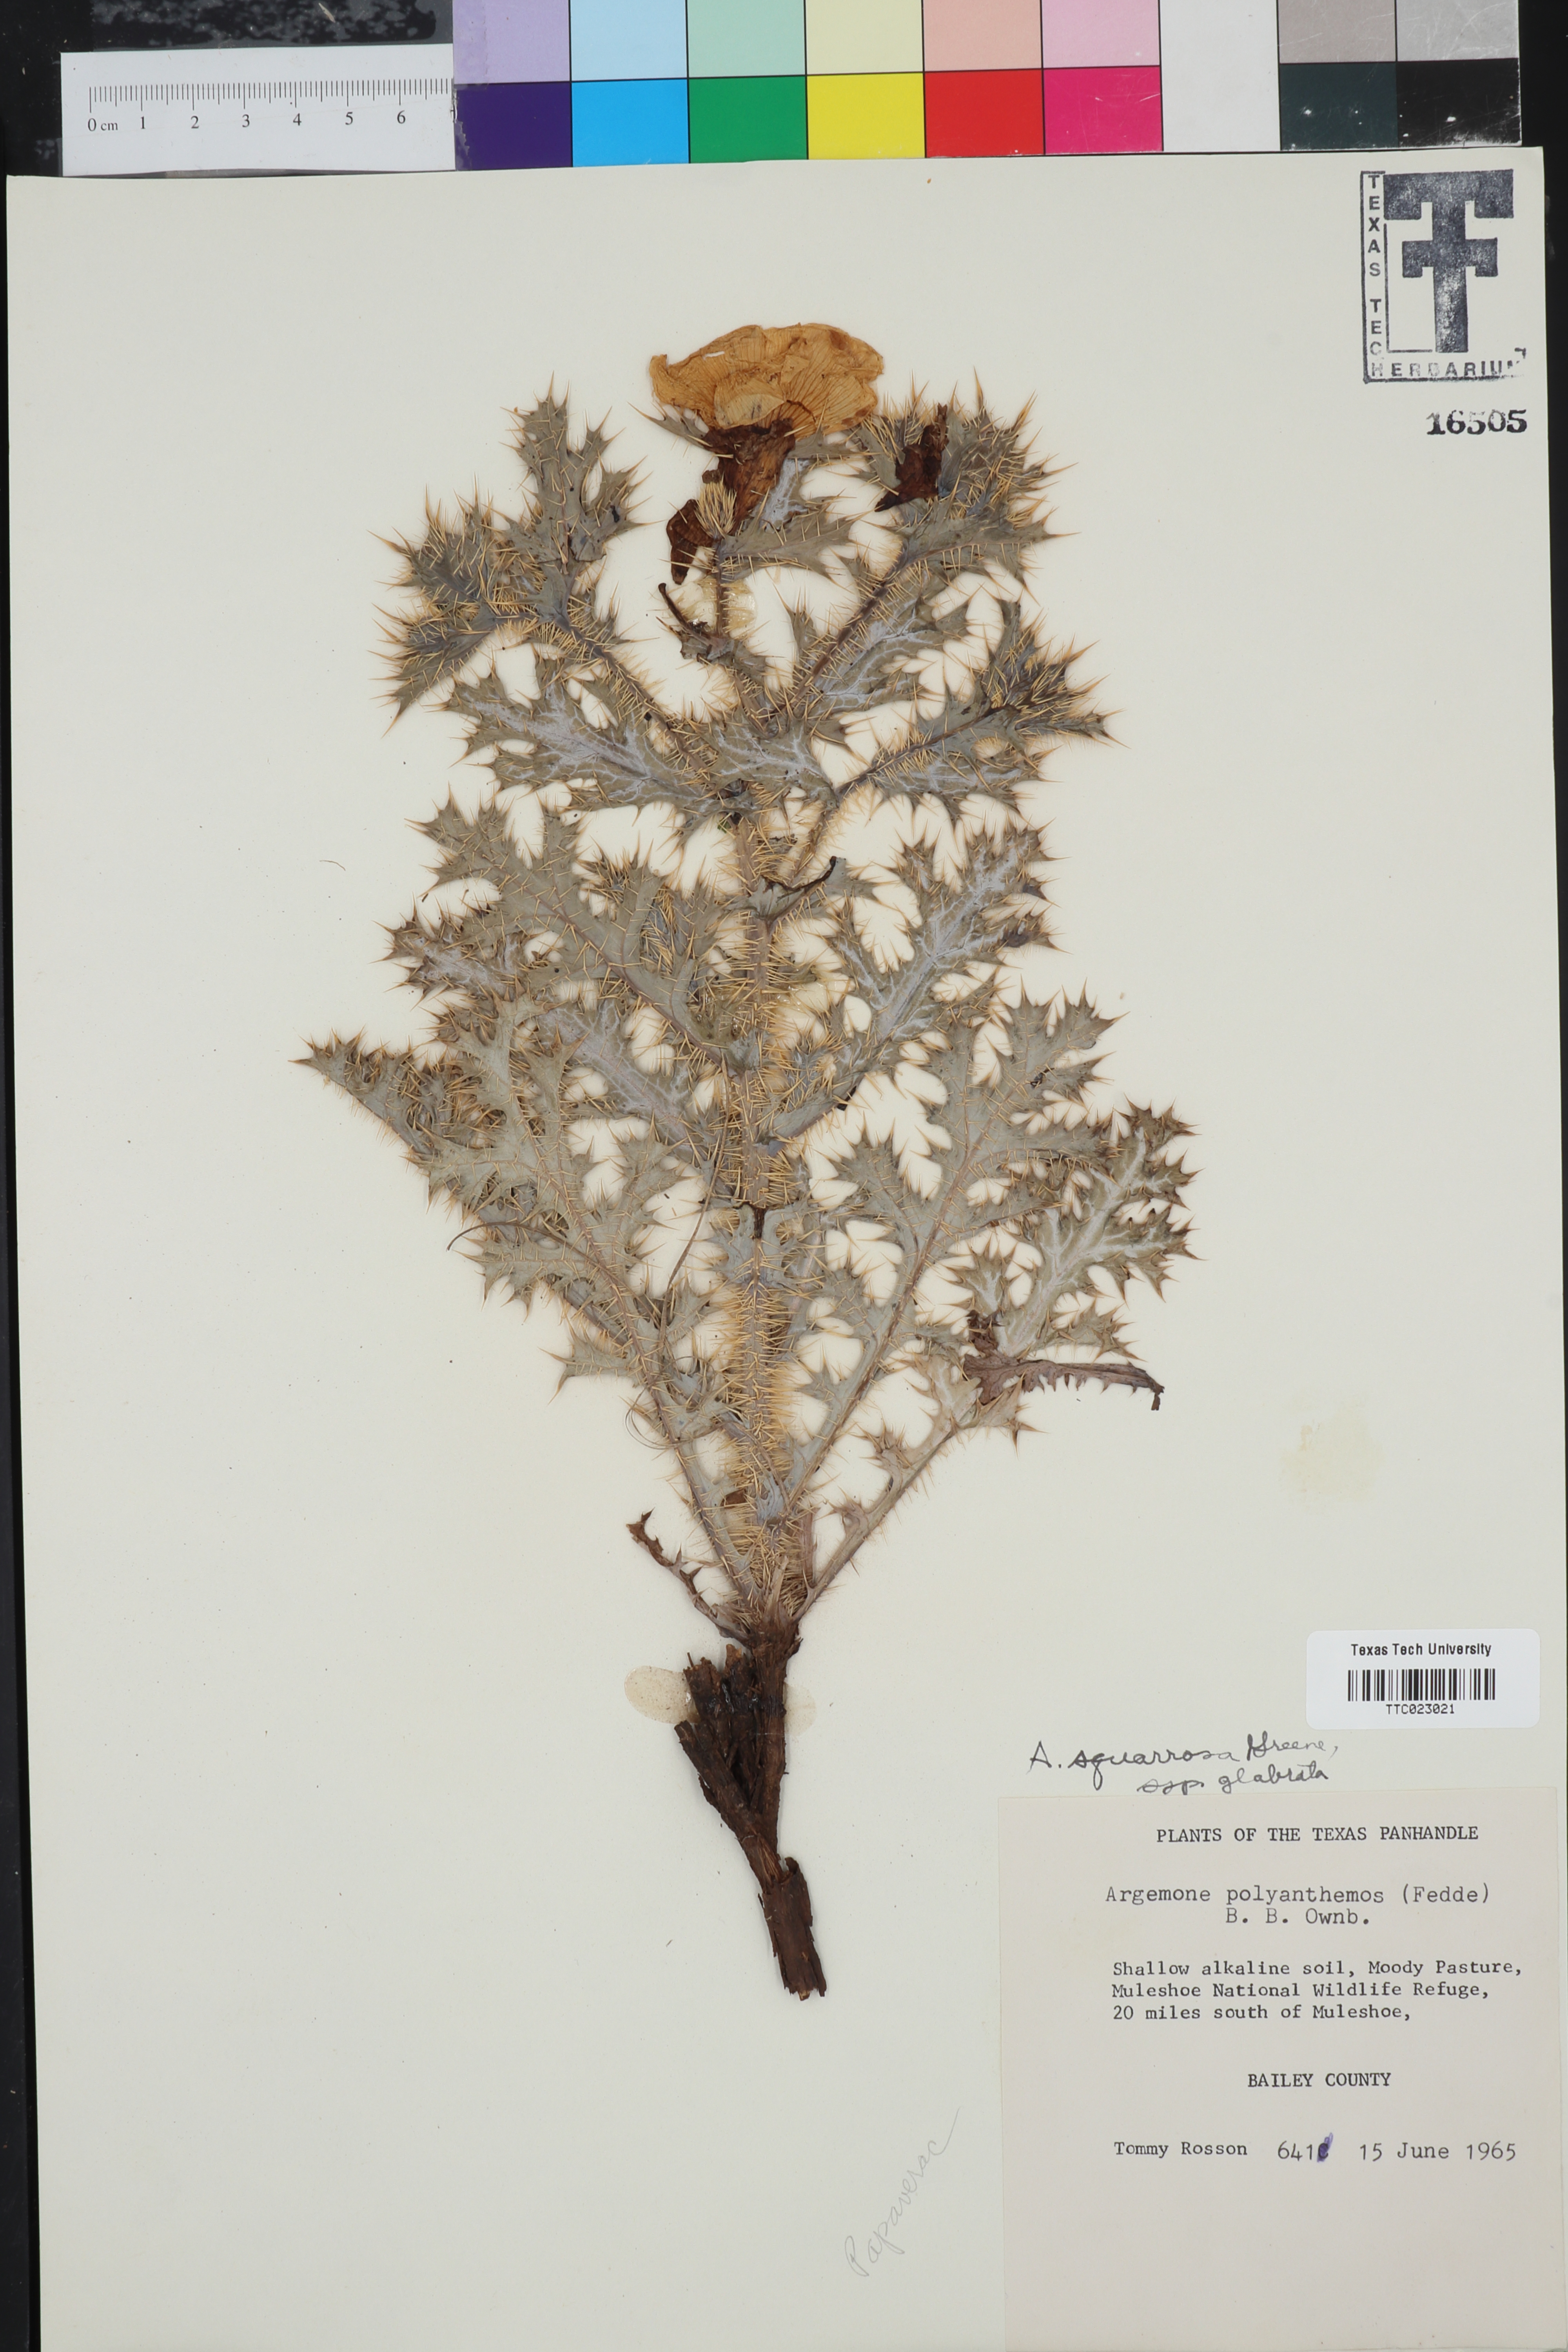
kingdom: Plantae
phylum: Tracheophyta
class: Magnoliopsida
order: Ranunculales
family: Papaveraceae
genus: Argemone
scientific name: Argemone squarrosa
